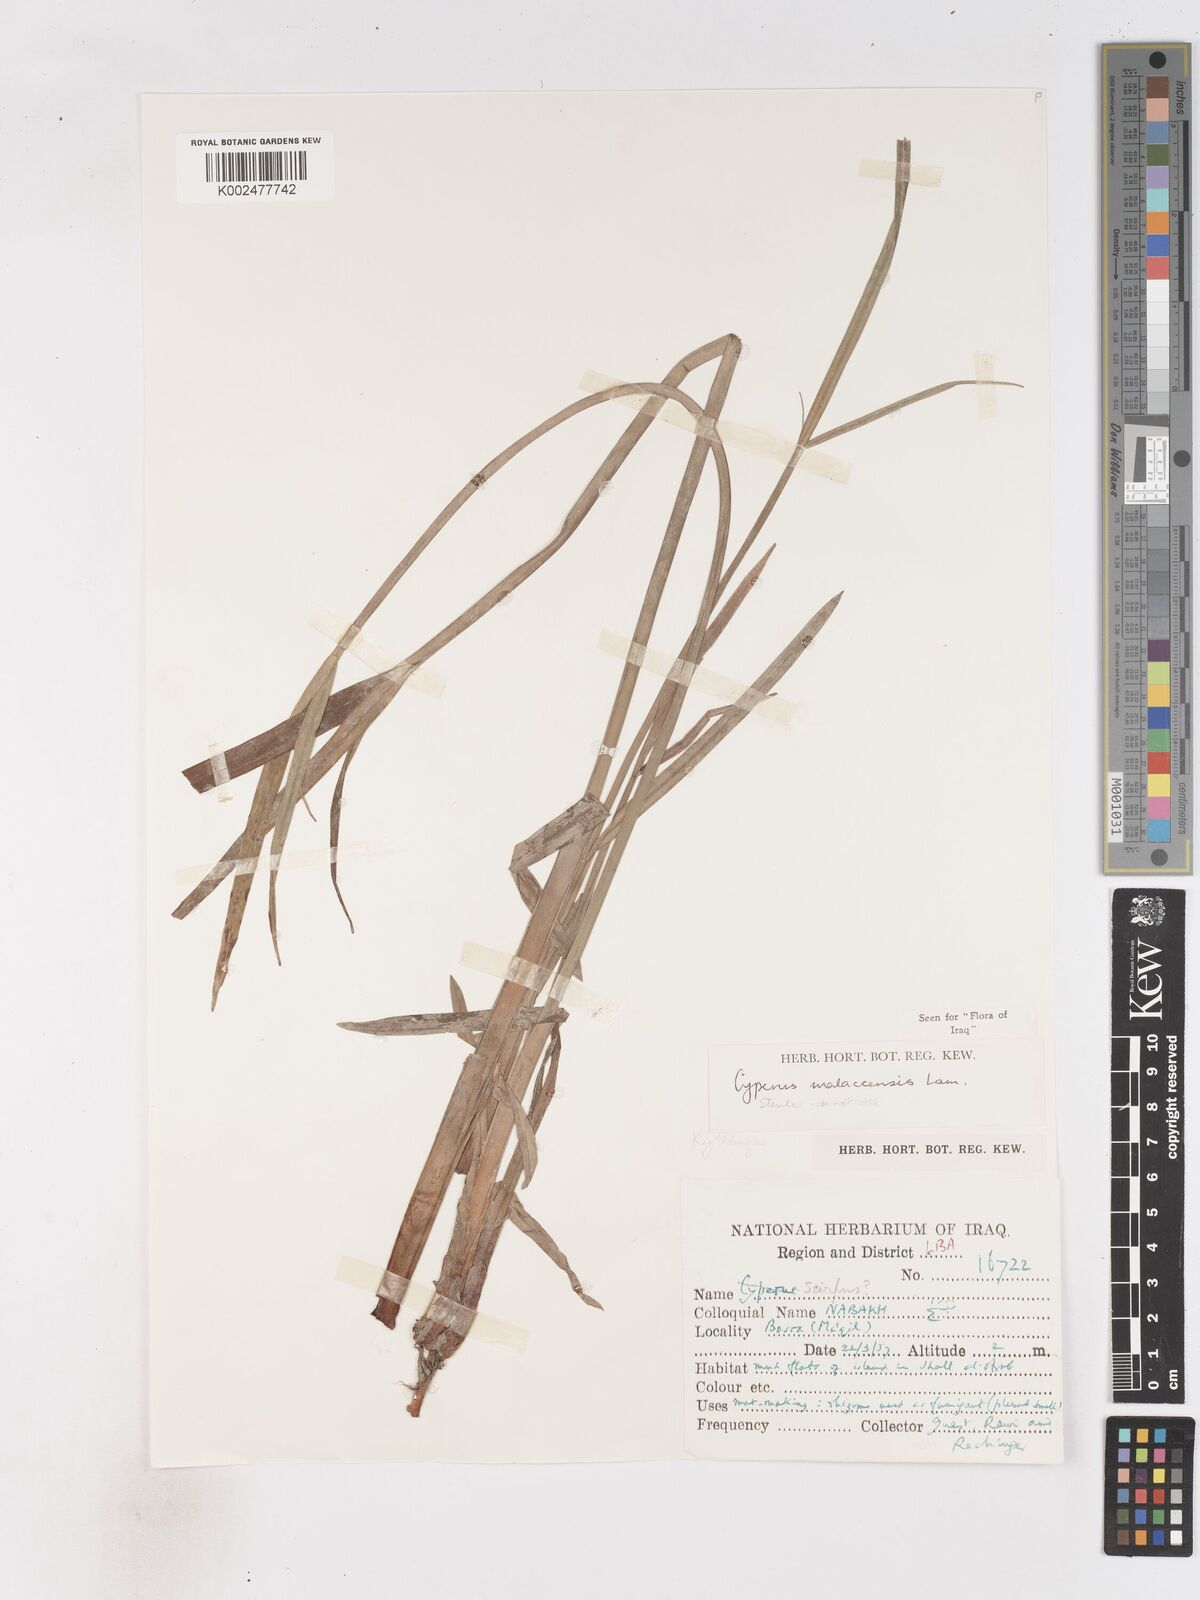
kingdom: Plantae
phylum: Tracheophyta
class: Liliopsida
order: Poales
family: Cyperaceae
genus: Cyperus
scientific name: Cyperus malaccensis
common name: Shichito matgrass
